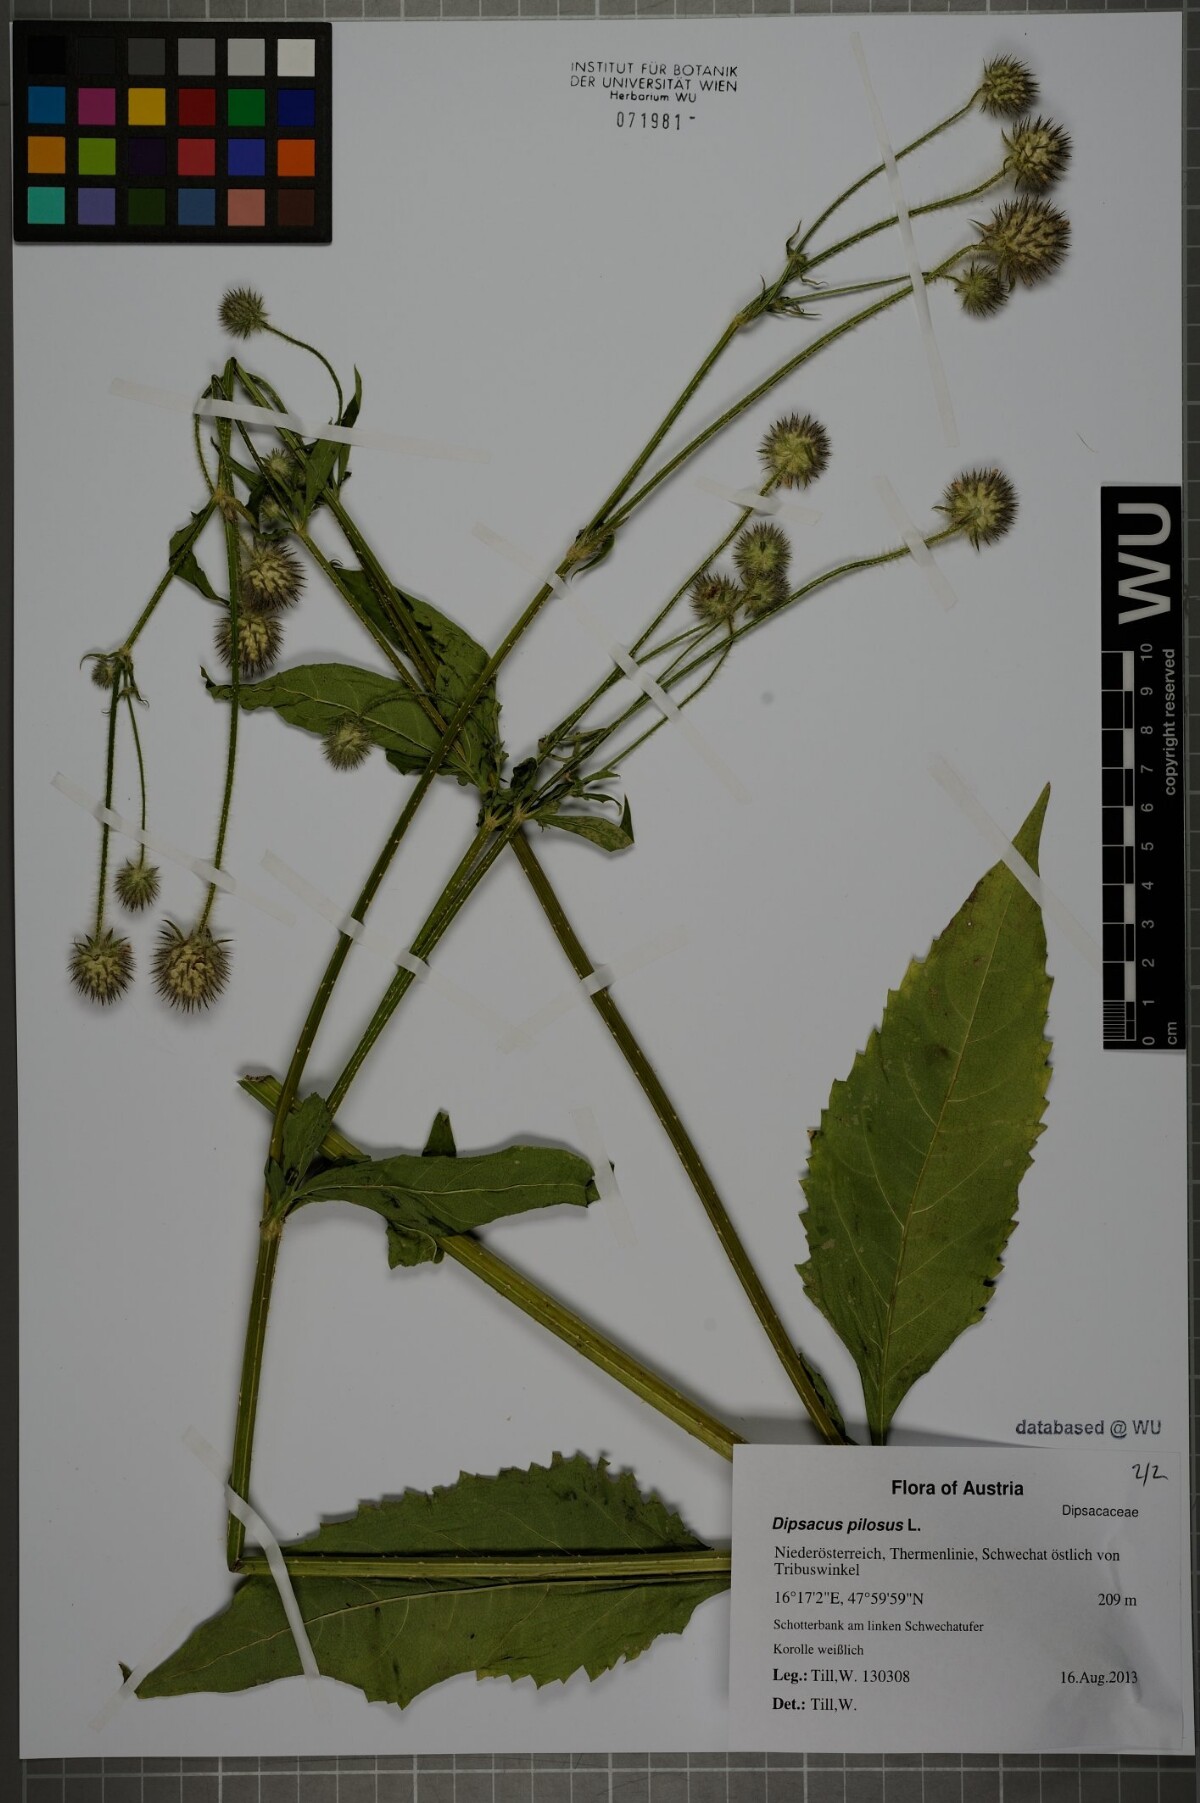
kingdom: Plantae
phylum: Tracheophyta
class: Magnoliopsida
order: Dipsacales
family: Caprifoliaceae
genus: Dipsacus
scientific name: Dipsacus pilosus
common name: Small teasel
